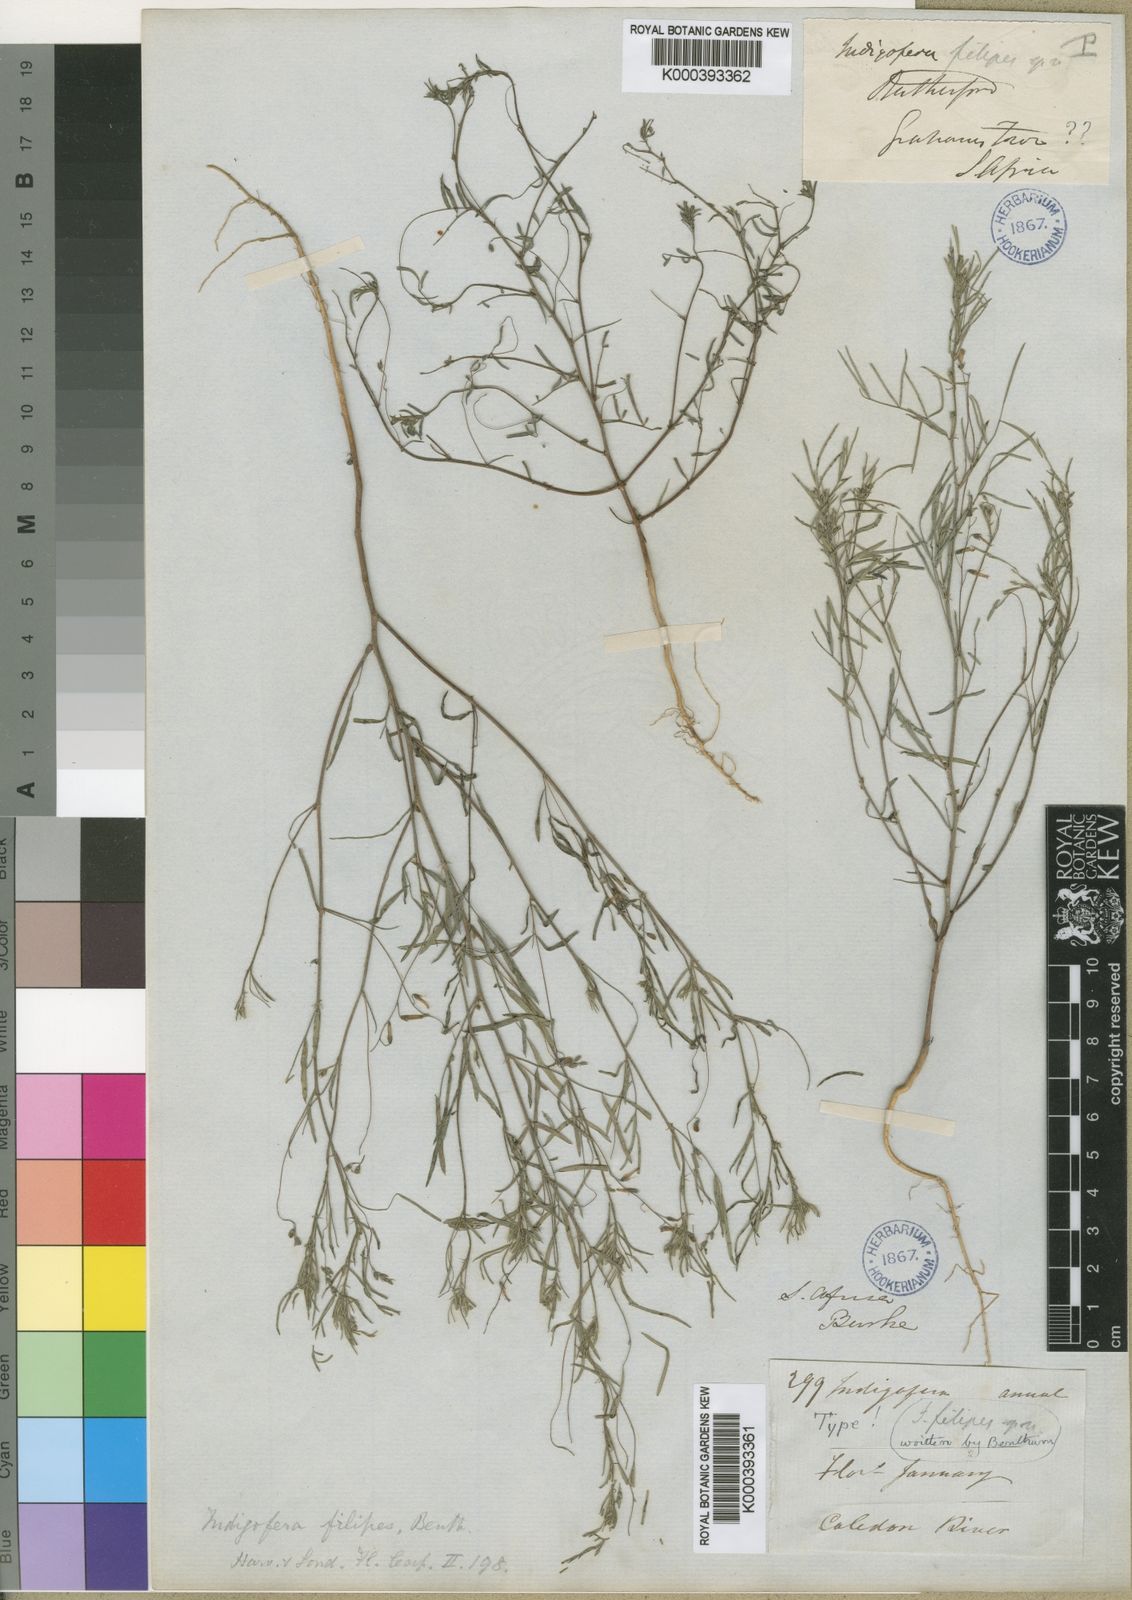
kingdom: Plantae
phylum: Tracheophyta
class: Magnoliopsida
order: Fabales
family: Fabaceae
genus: Indigofera
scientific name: Indigofera filipes
